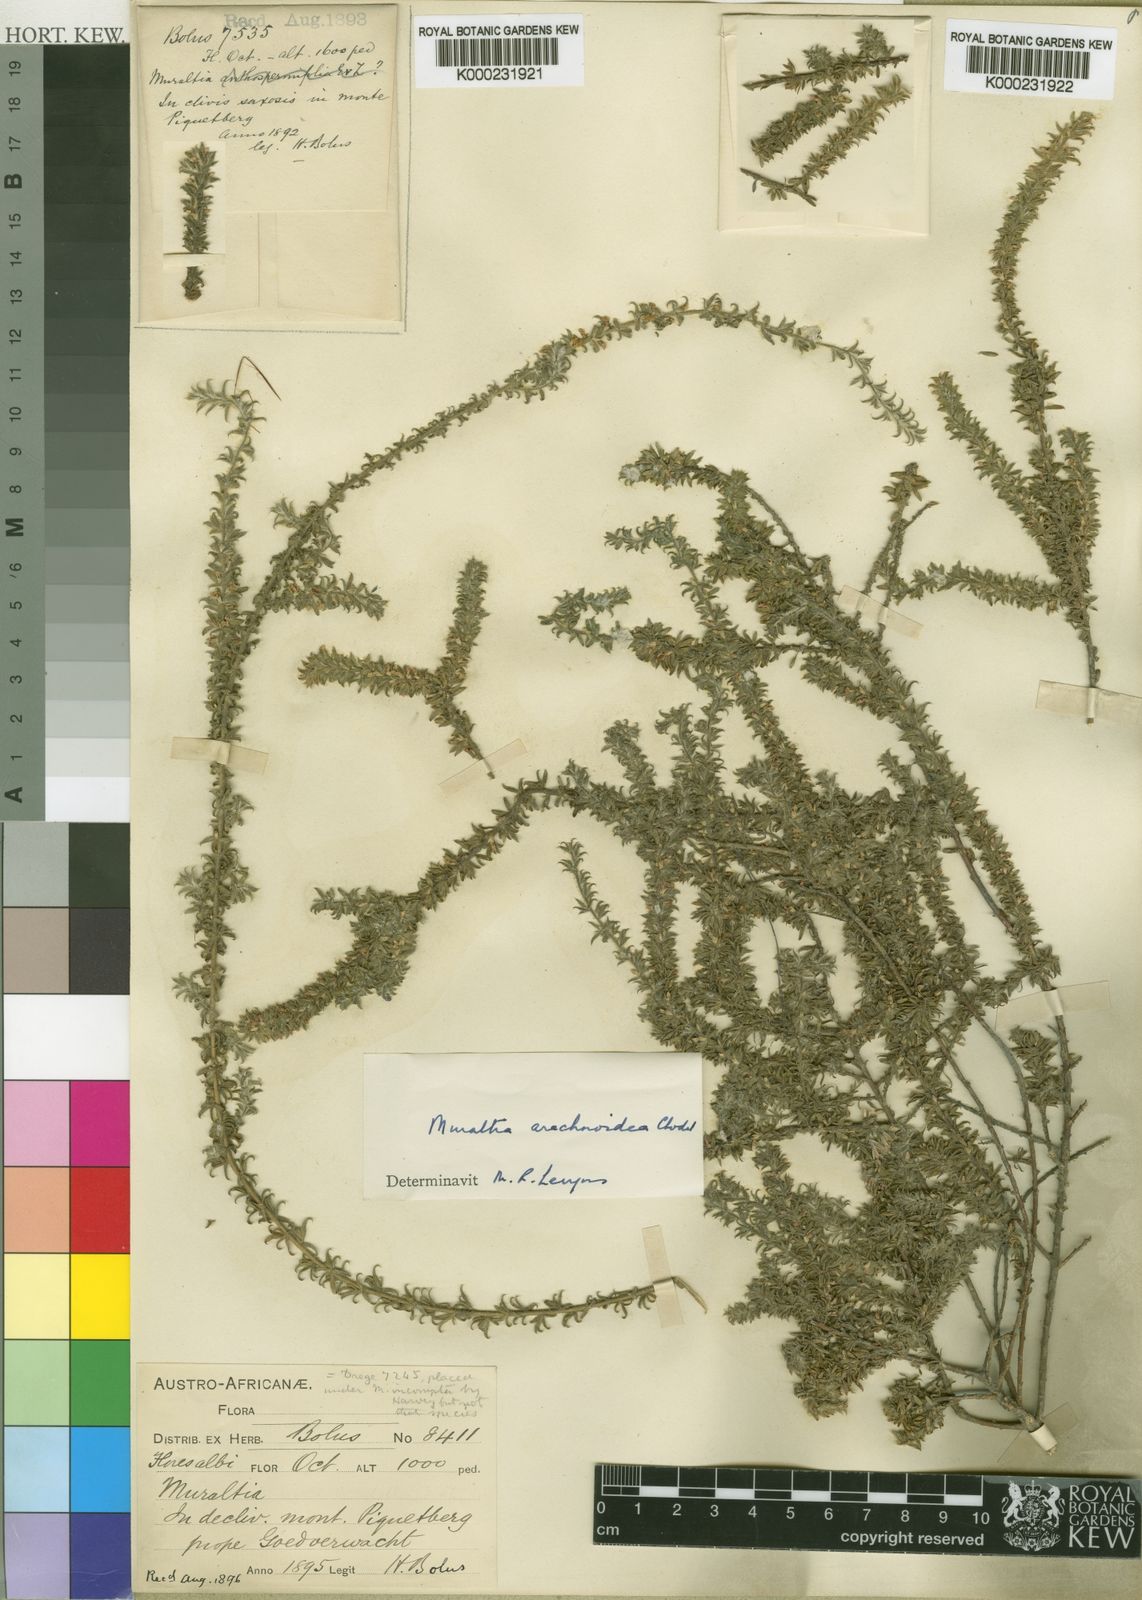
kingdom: Plantae
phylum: Tracheophyta
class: Magnoliopsida
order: Fabales
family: Polygalaceae
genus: Muraltia
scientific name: Muraltia arachnoidea
